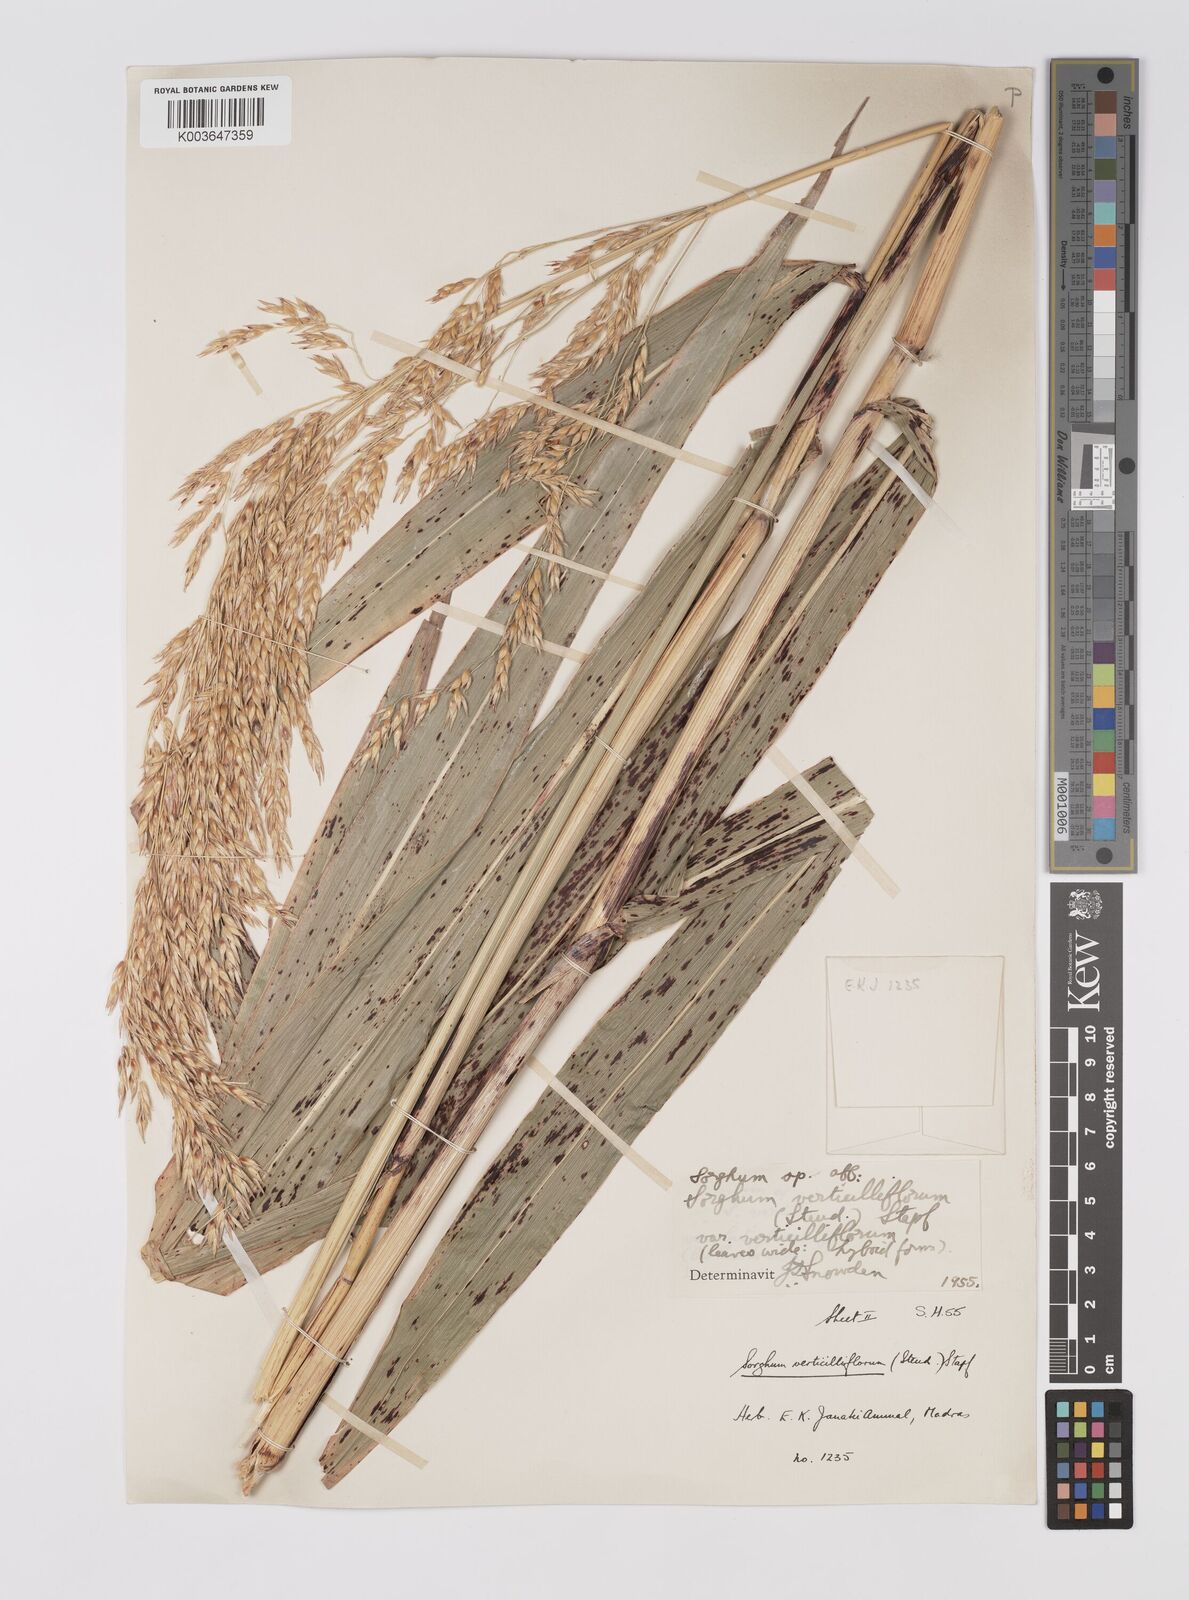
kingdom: Plantae
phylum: Tracheophyta
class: Liliopsida
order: Poales
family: Poaceae
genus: Sorghum
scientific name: Sorghum arundinaceum
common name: Sorghum
